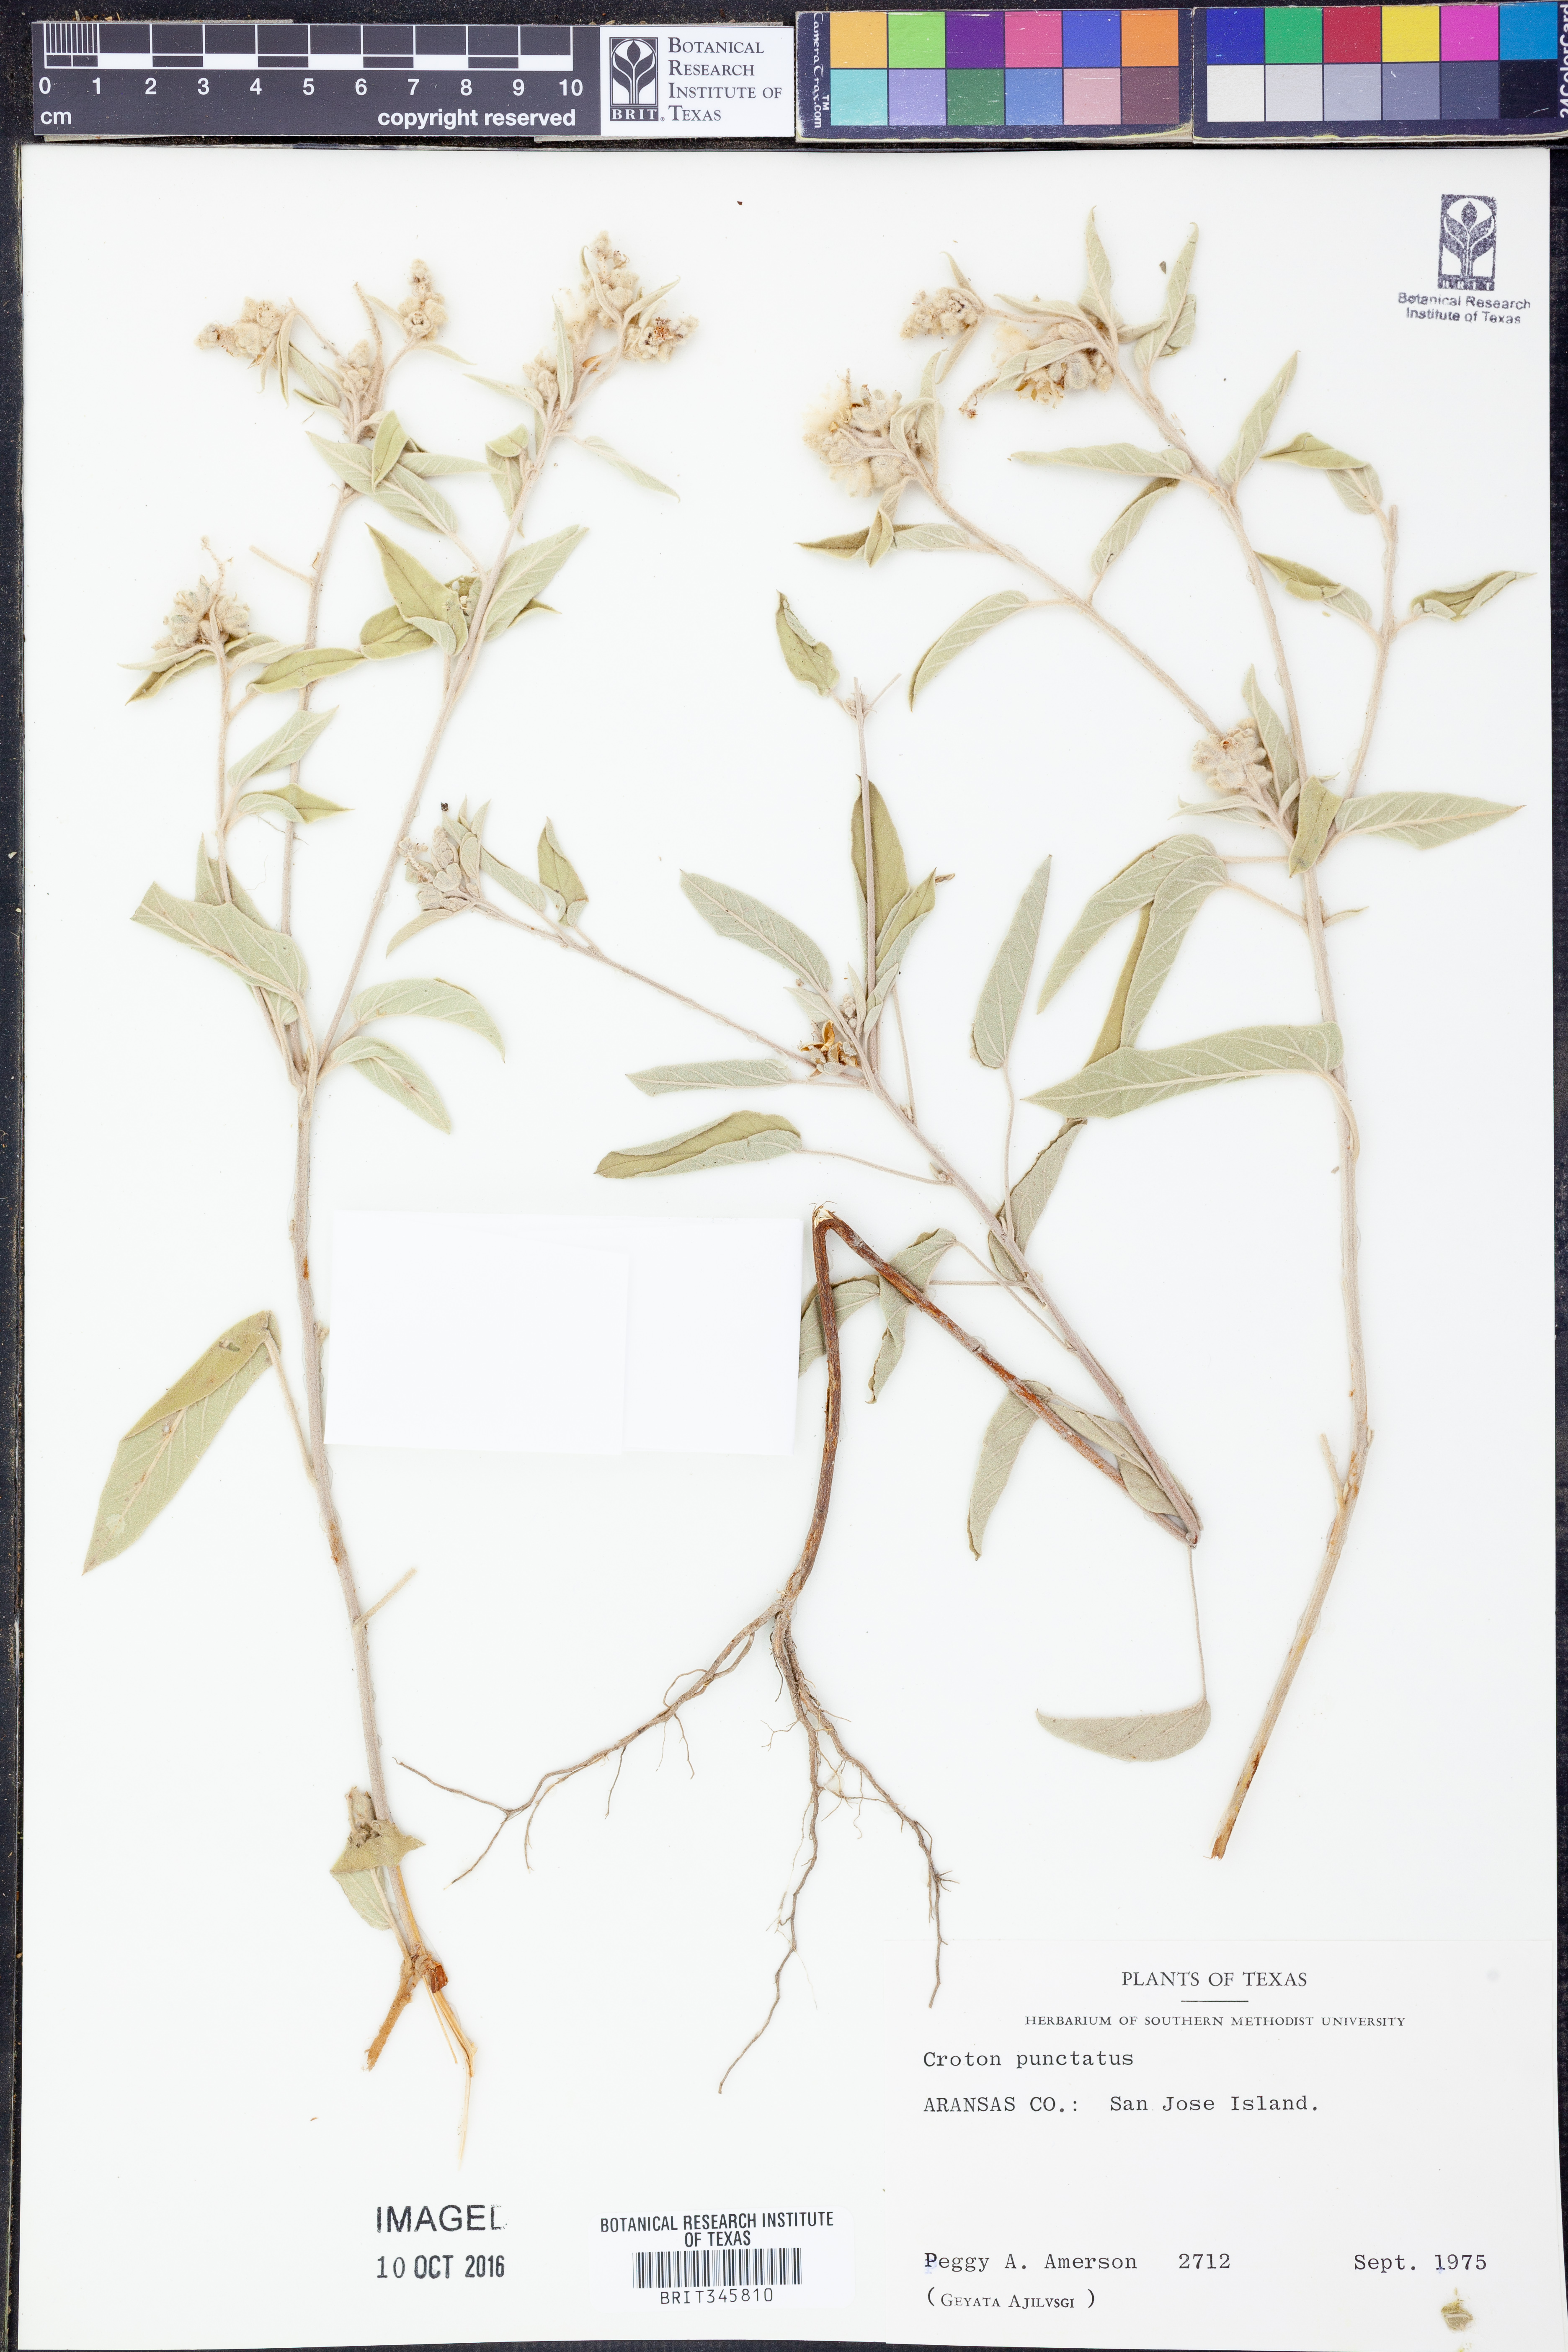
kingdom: Plantae
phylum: Tracheophyta
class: Magnoliopsida
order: Malpighiales
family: Euphorbiaceae
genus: Croton
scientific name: Croton punctatus
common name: Beach-tea
